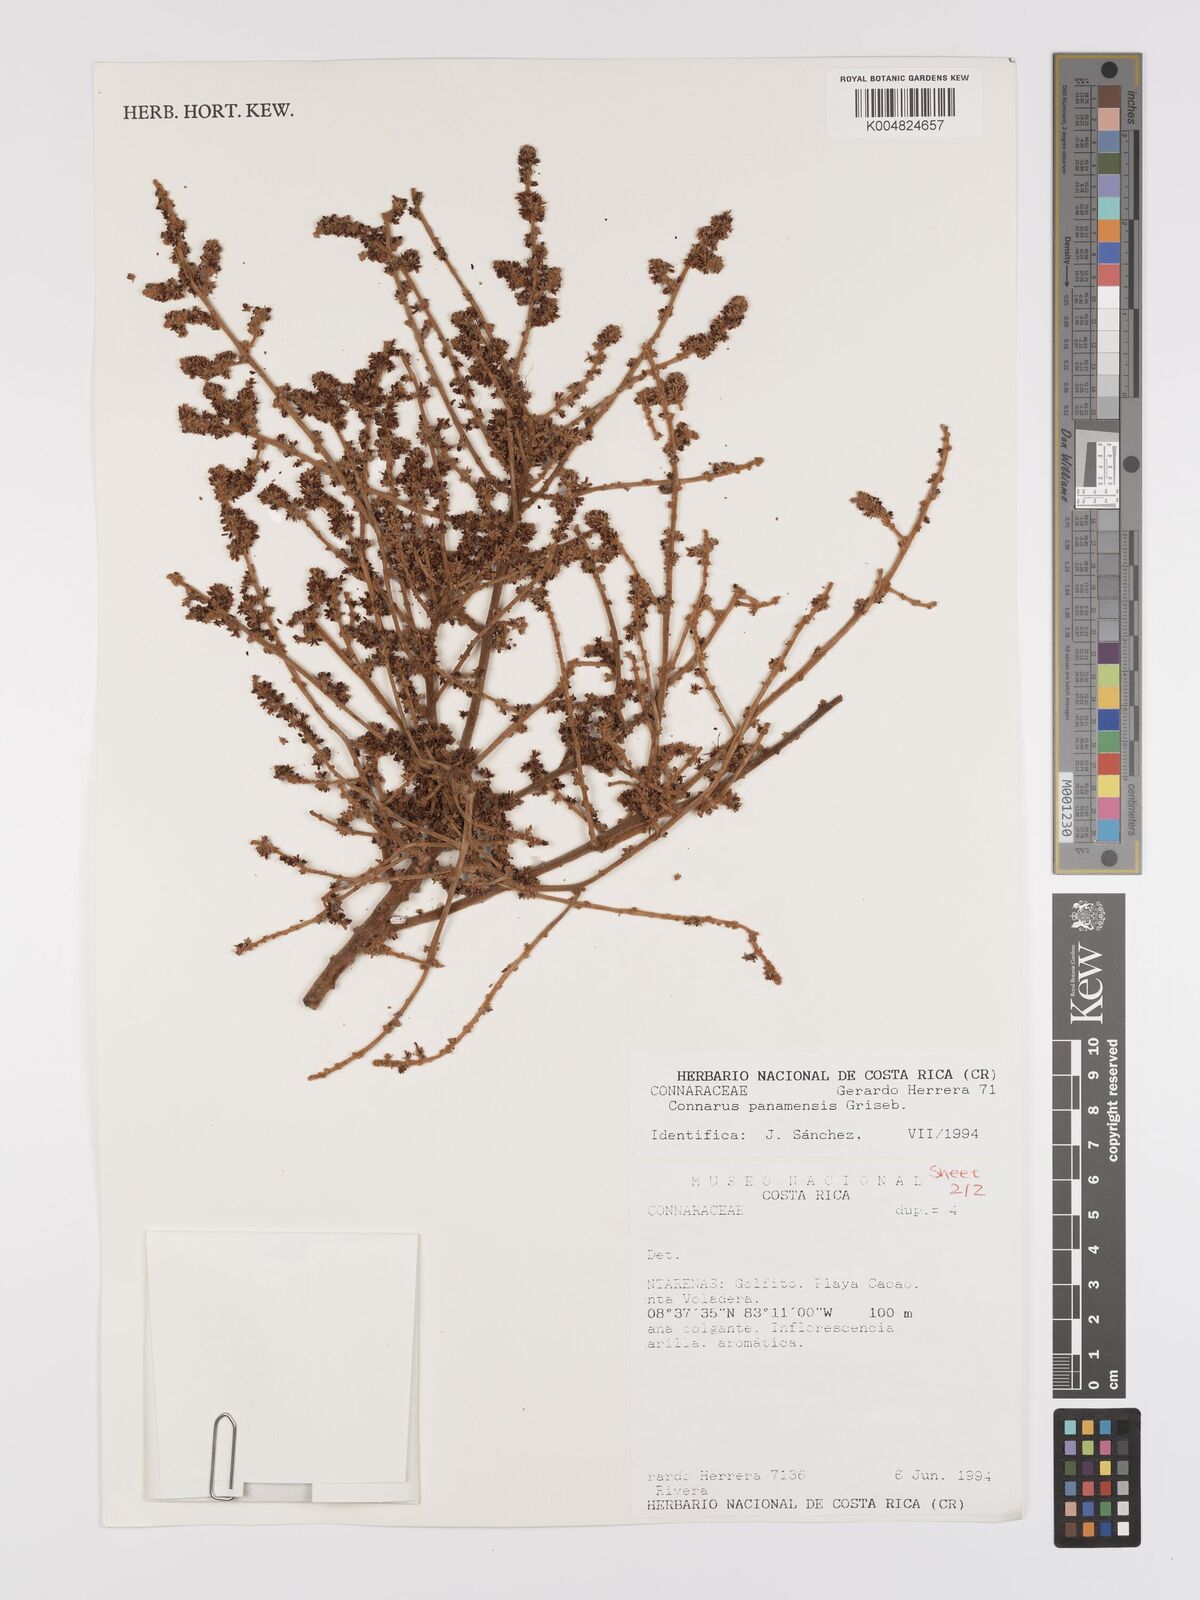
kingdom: Plantae
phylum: Tracheophyta
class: Magnoliopsida
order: Oxalidales
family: Connaraceae
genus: Connarus
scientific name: Connarus
